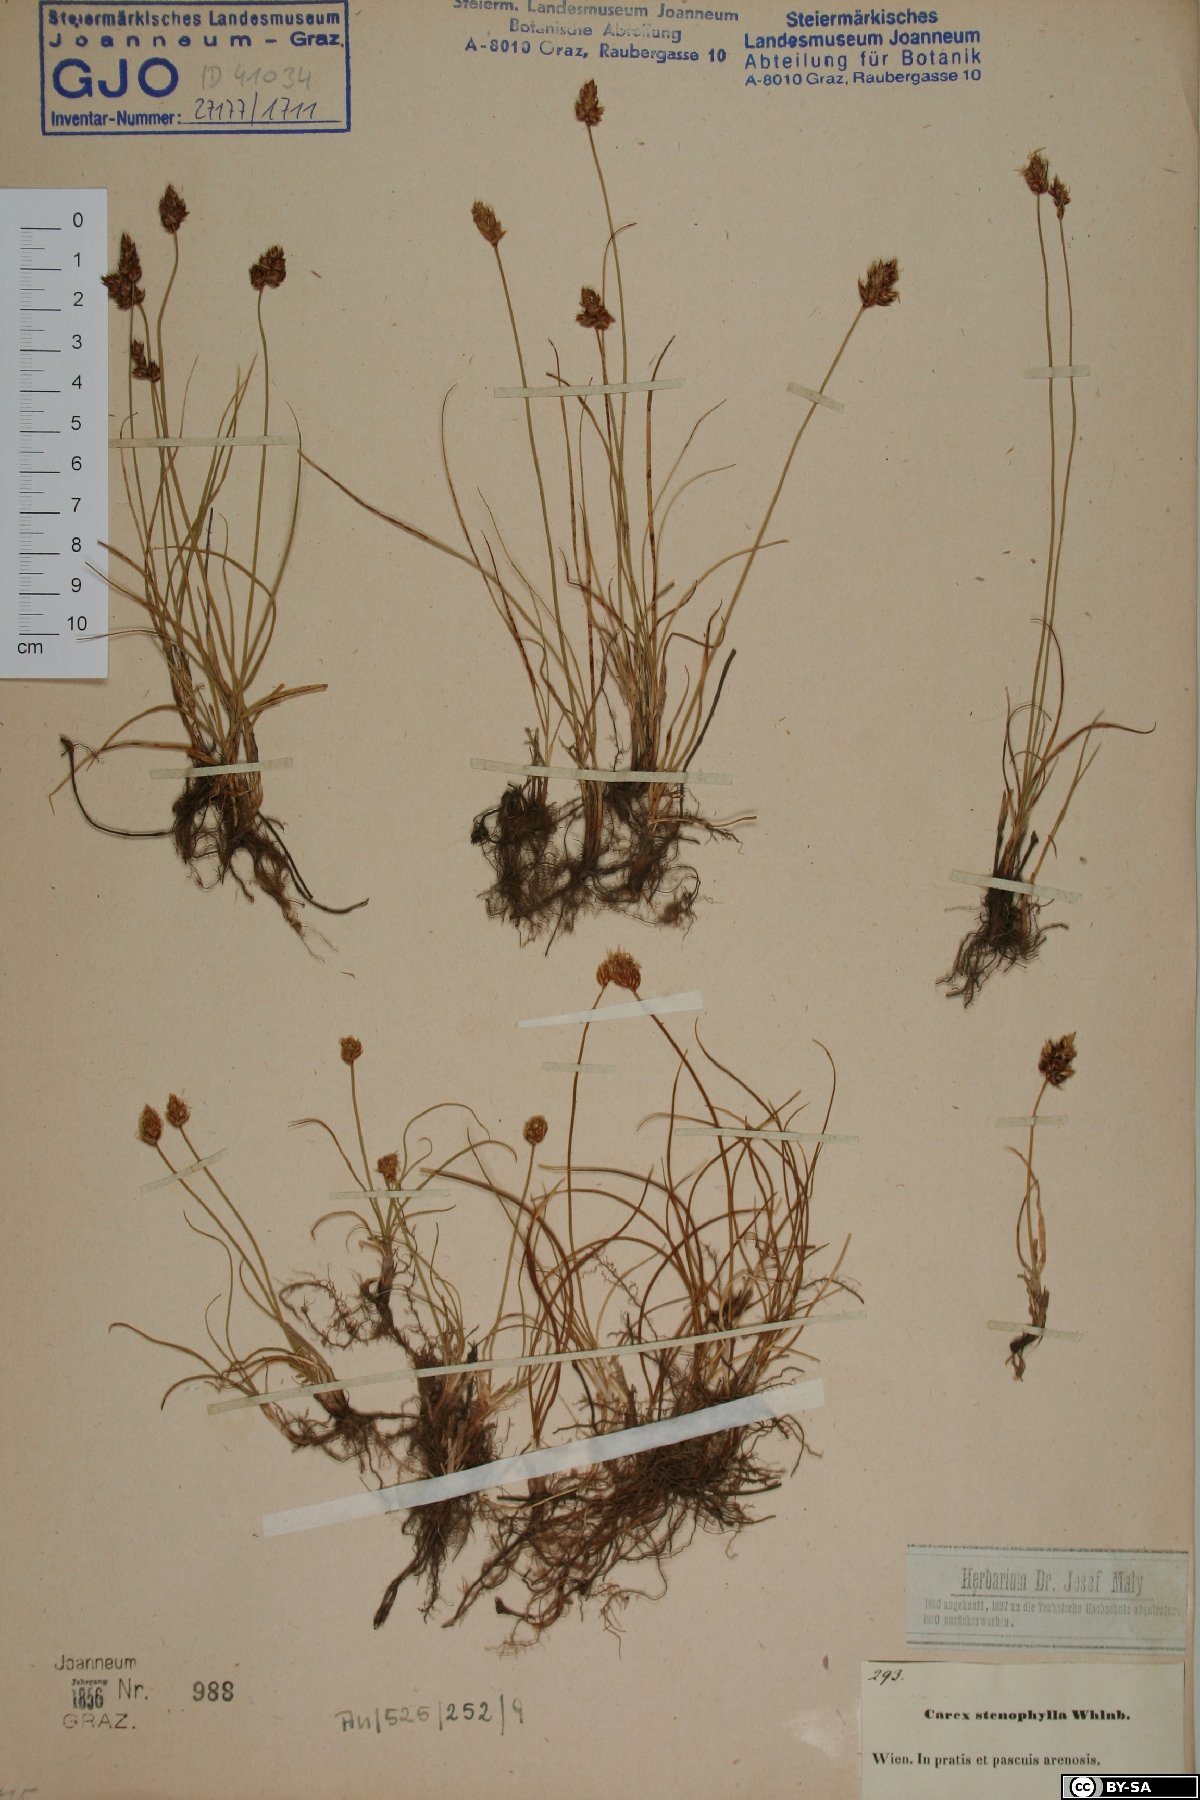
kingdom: Plantae
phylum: Tracheophyta
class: Liliopsida
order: Poales
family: Cyperaceae
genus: Carex
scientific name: Carex stenophylla
